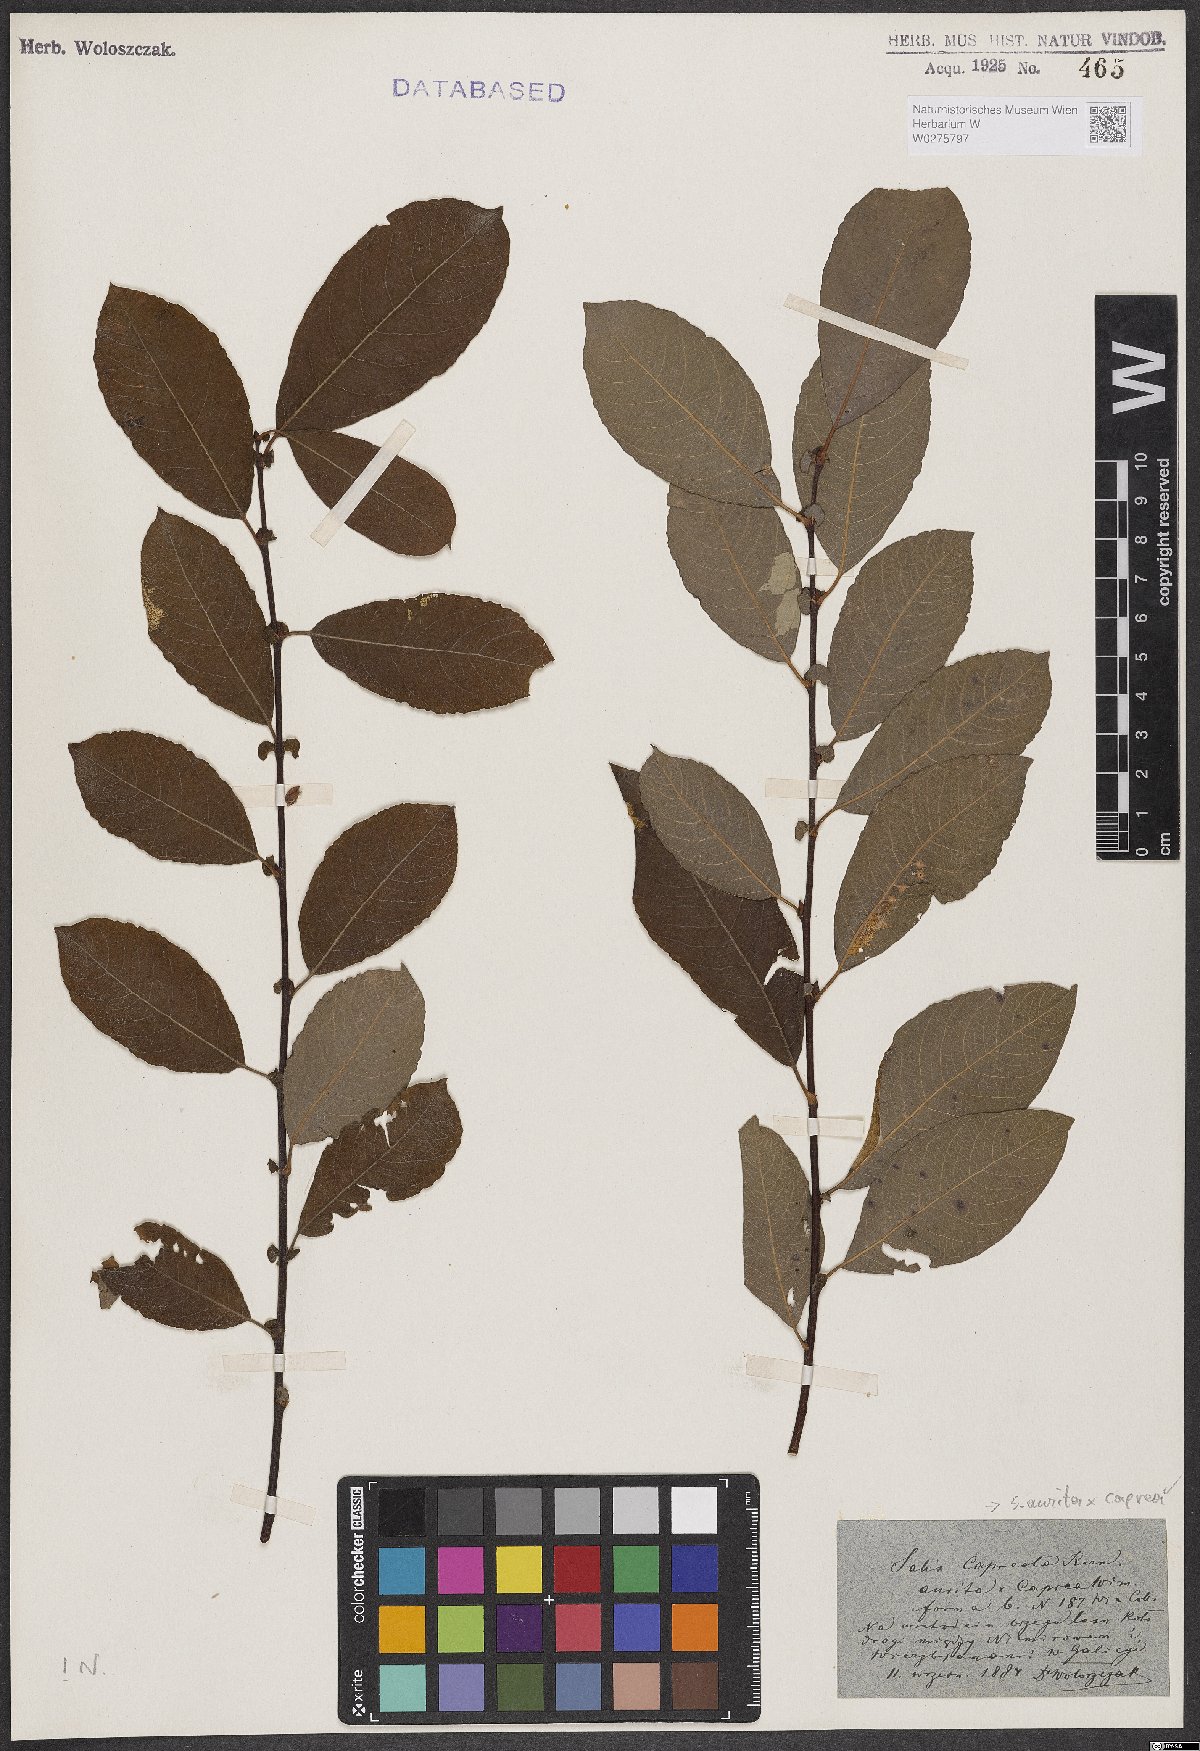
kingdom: Plantae
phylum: Tracheophyta
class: Magnoliopsida
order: Malpighiales
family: Salicaceae
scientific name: Salicaceae
